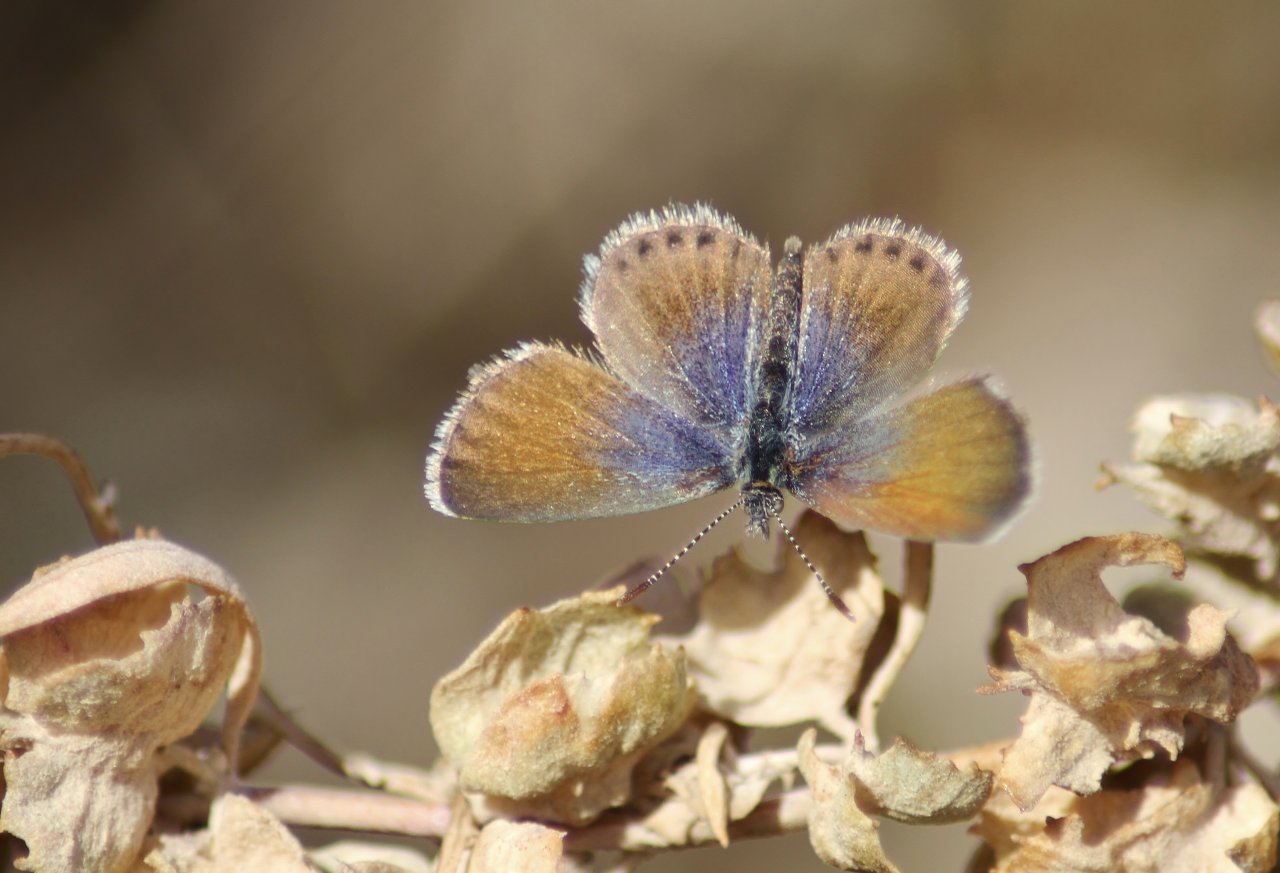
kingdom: Animalia
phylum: Arthropoda
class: Insecta
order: Lepidoptera
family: Lycaenidae
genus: Brephidium
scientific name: Brephidium exilis
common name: Western Pygmy-Blue
